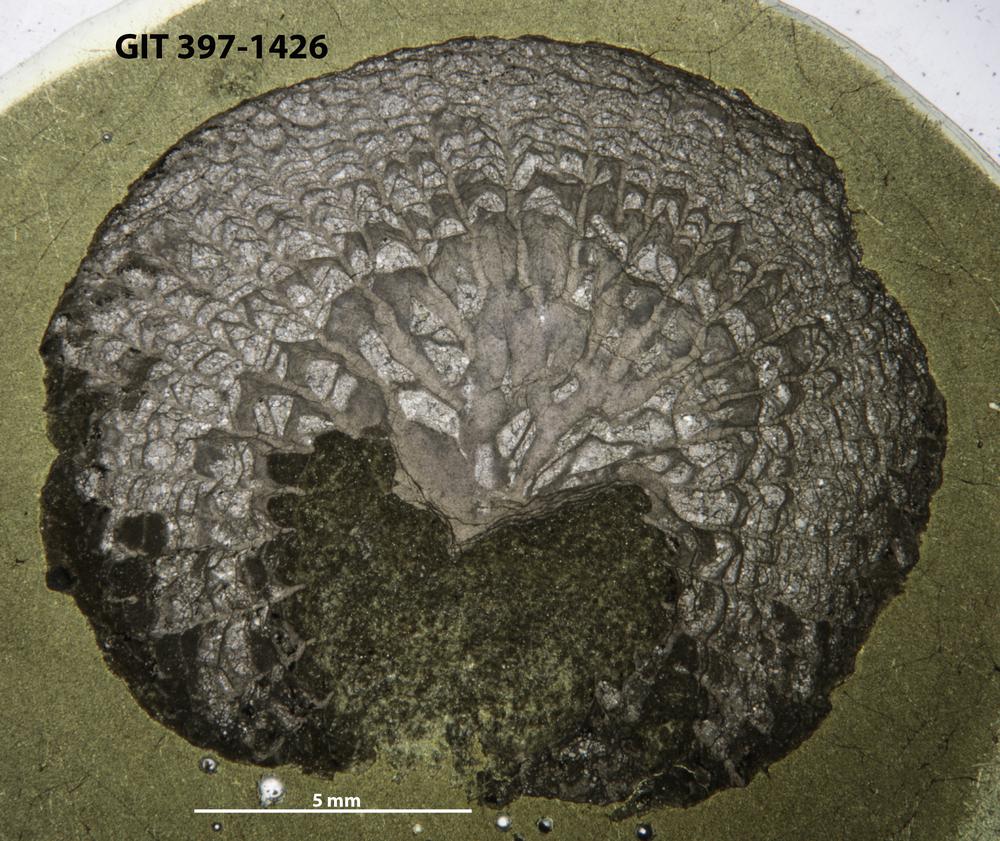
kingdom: Animalia
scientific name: Animalia
